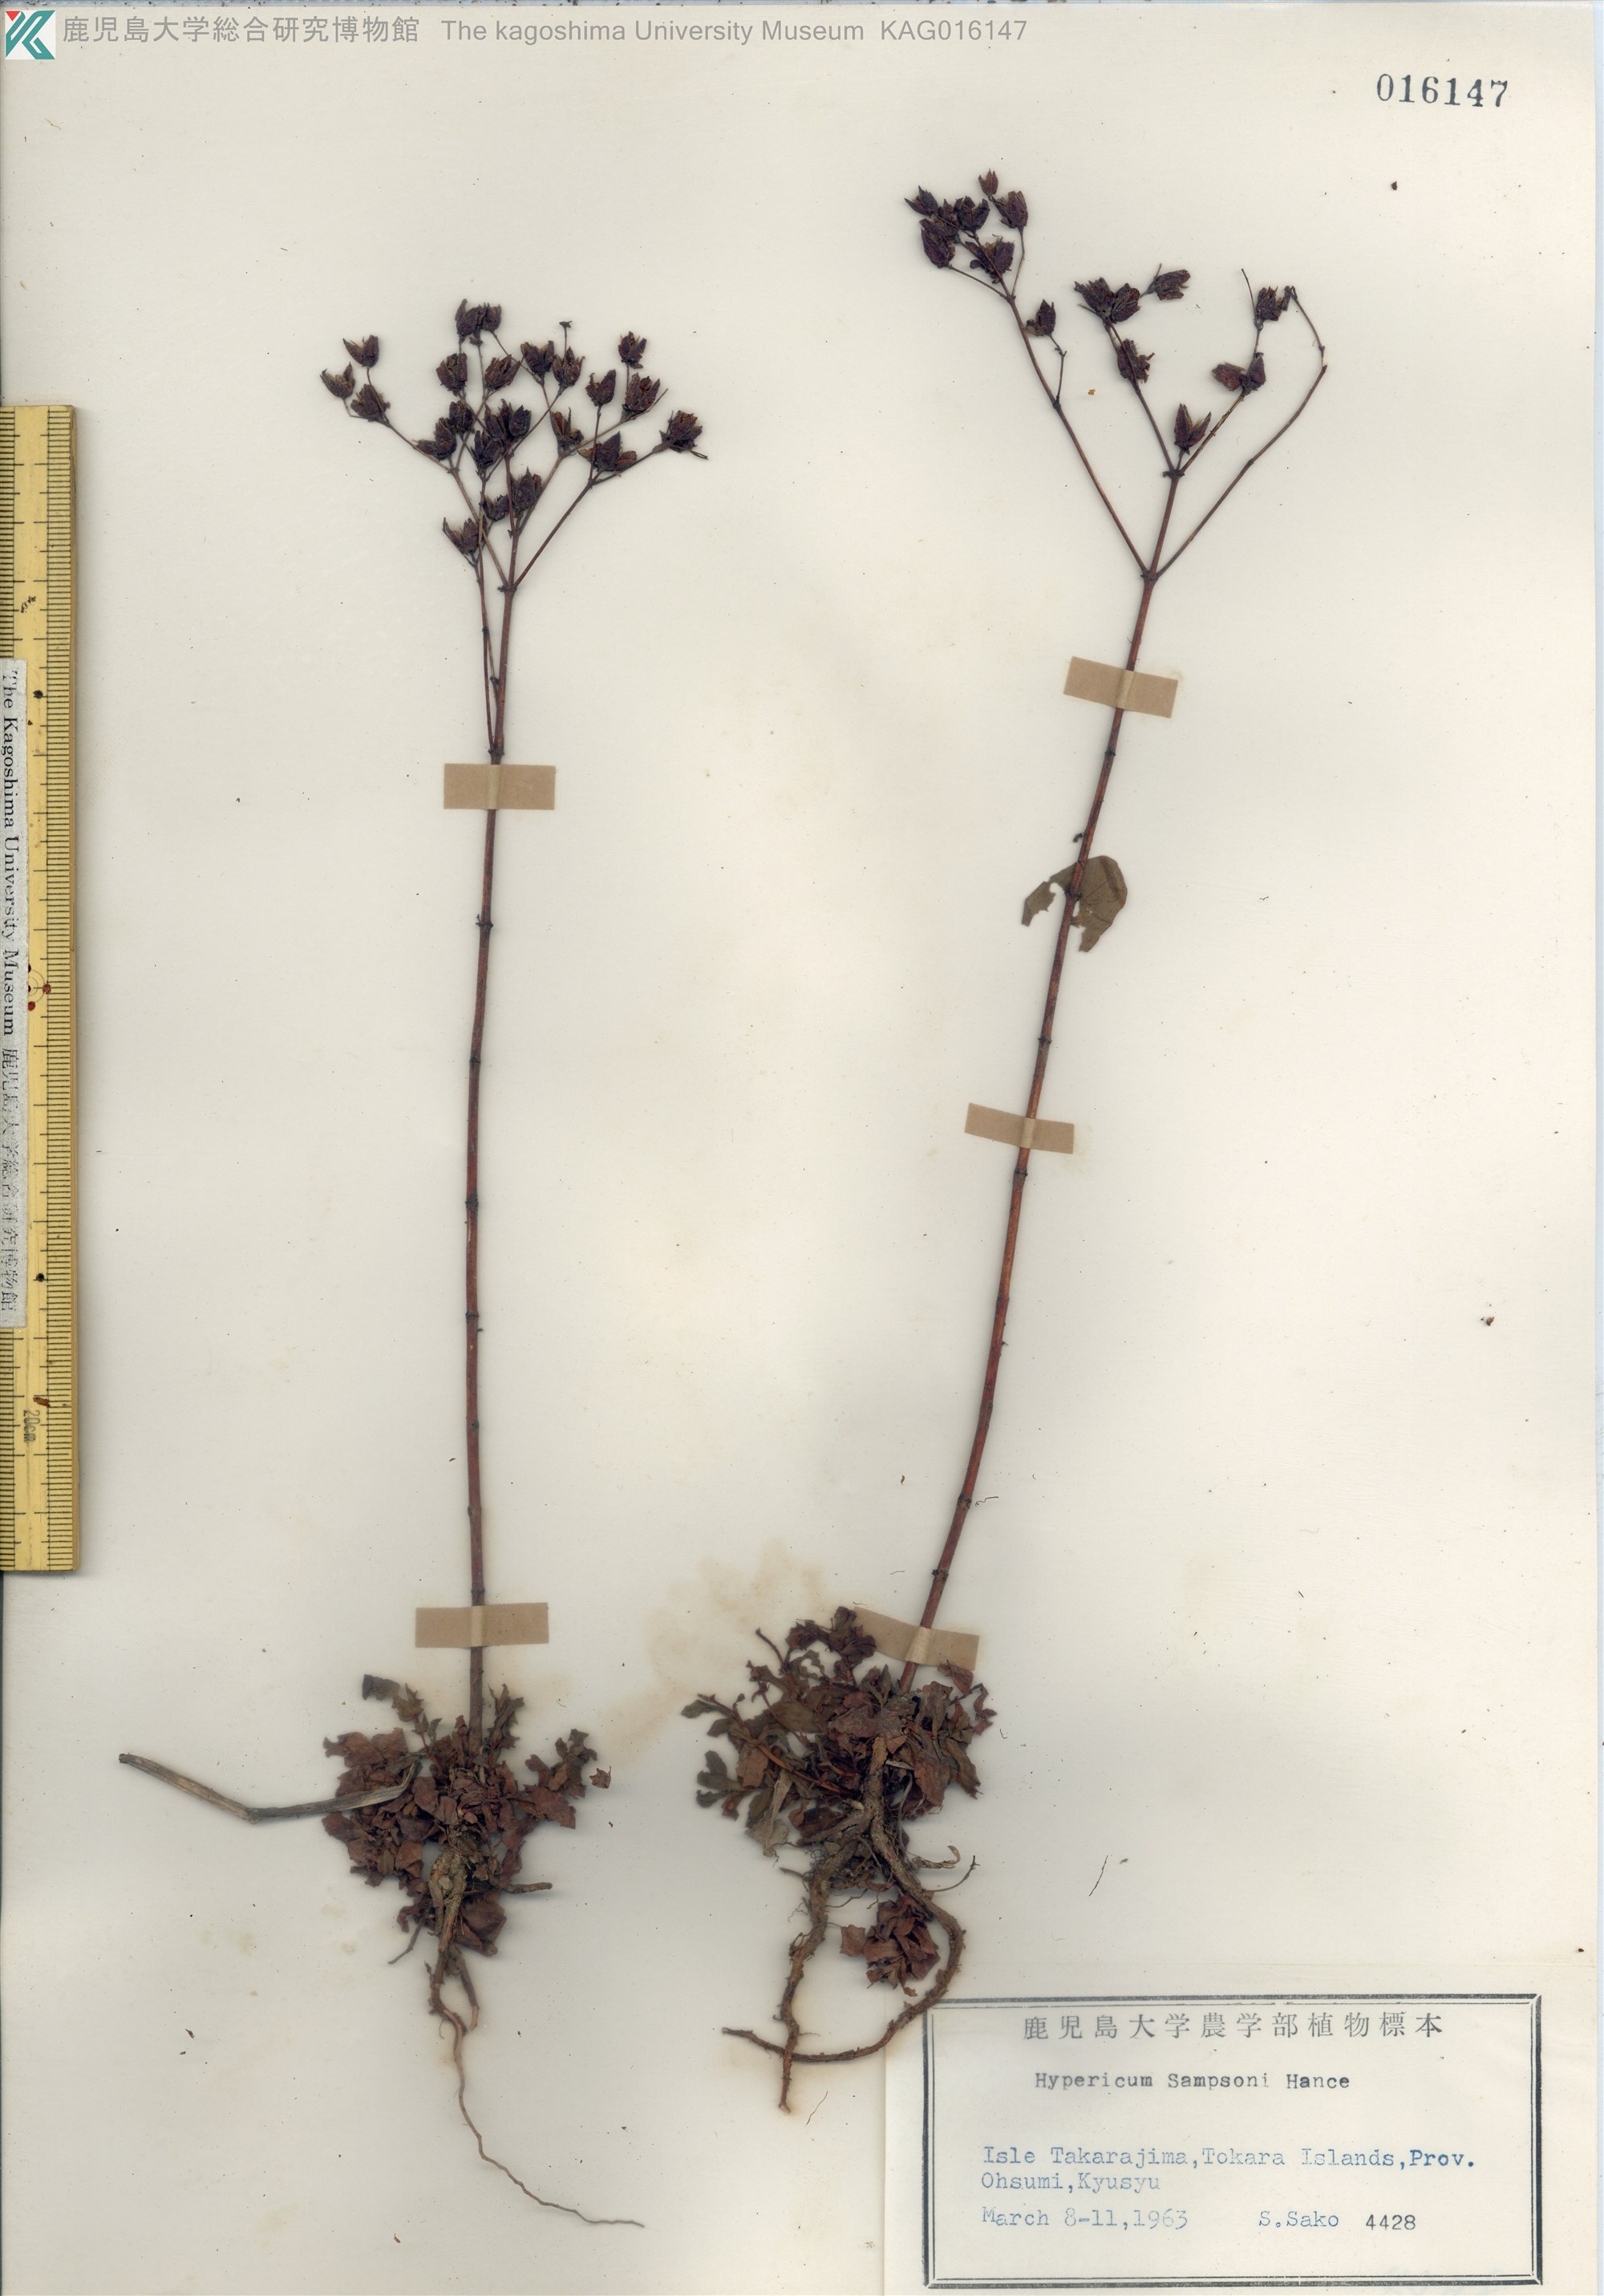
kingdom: Plantae
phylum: Tracheophyta
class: Magnoliopsida
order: Malpighiales
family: Hypericaceae
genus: Hypericum
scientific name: Hypericum sampsonii
